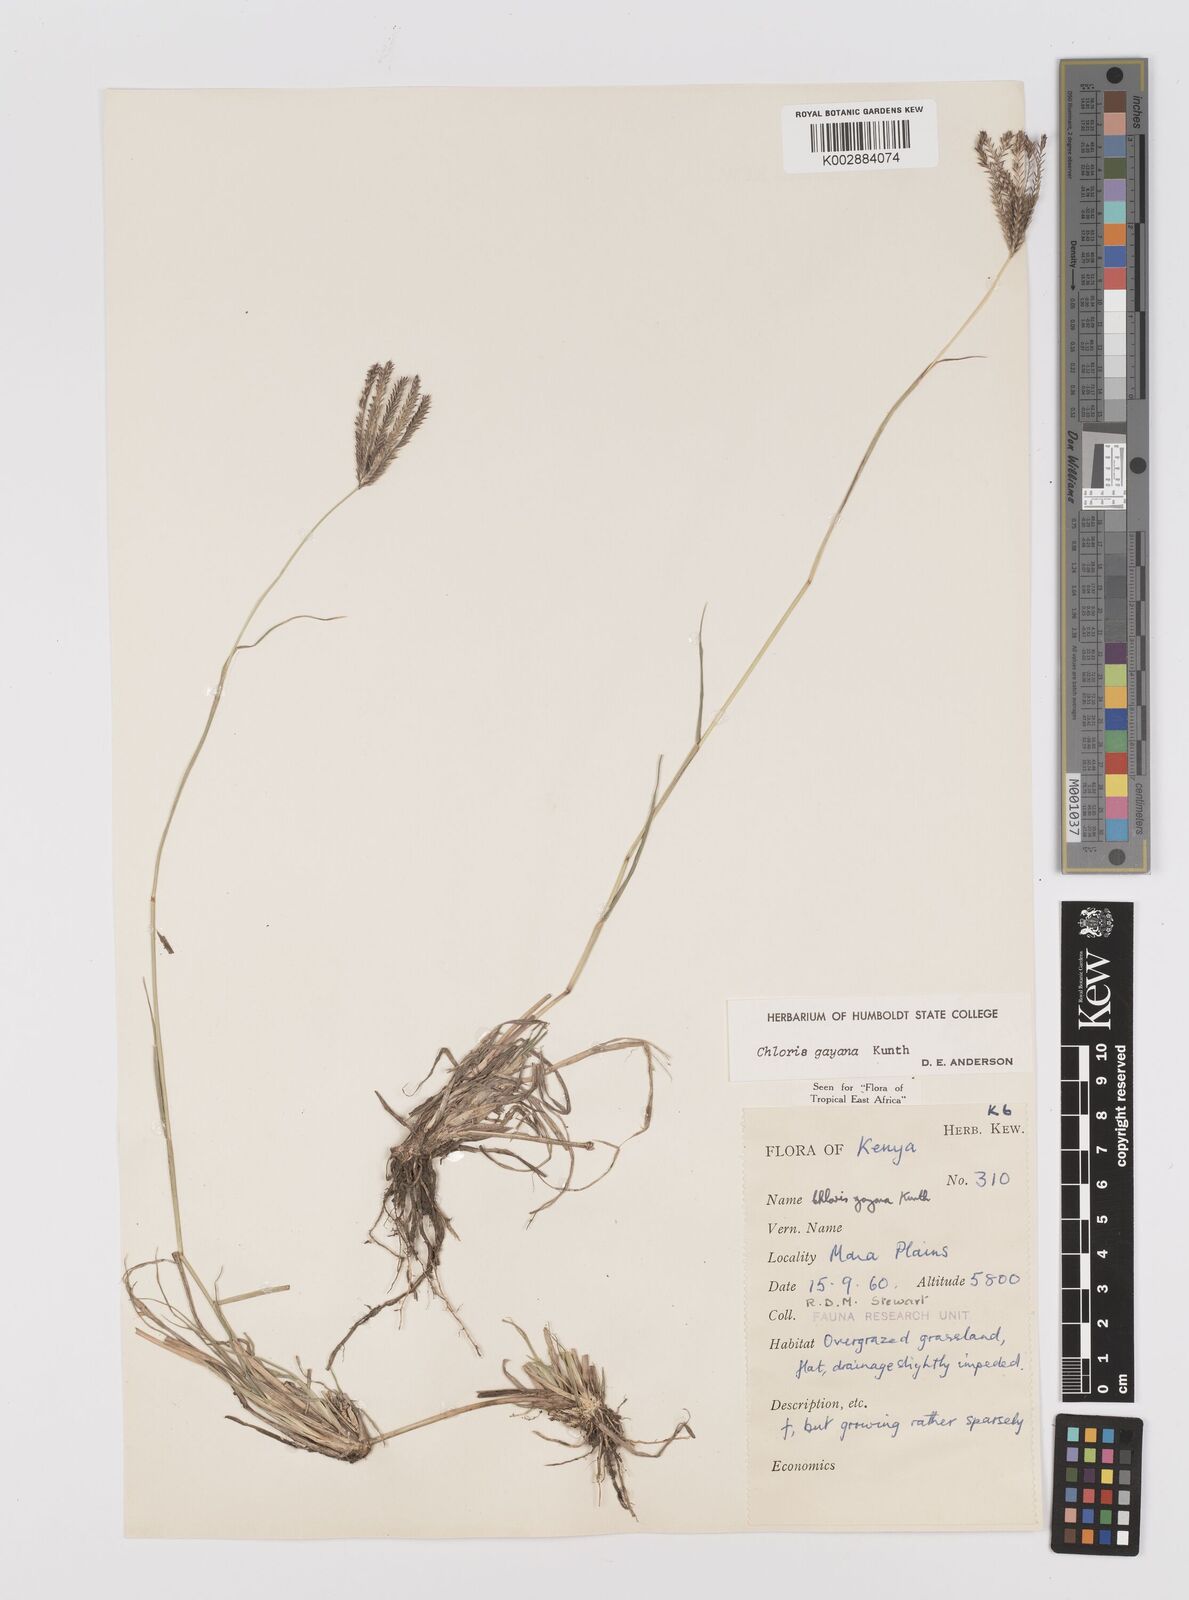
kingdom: Plantae
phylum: Tracheophyta
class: Liliopsida
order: Poales
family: Poaceae
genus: Chloris
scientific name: Chloris gayana
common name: Rhodes grass
